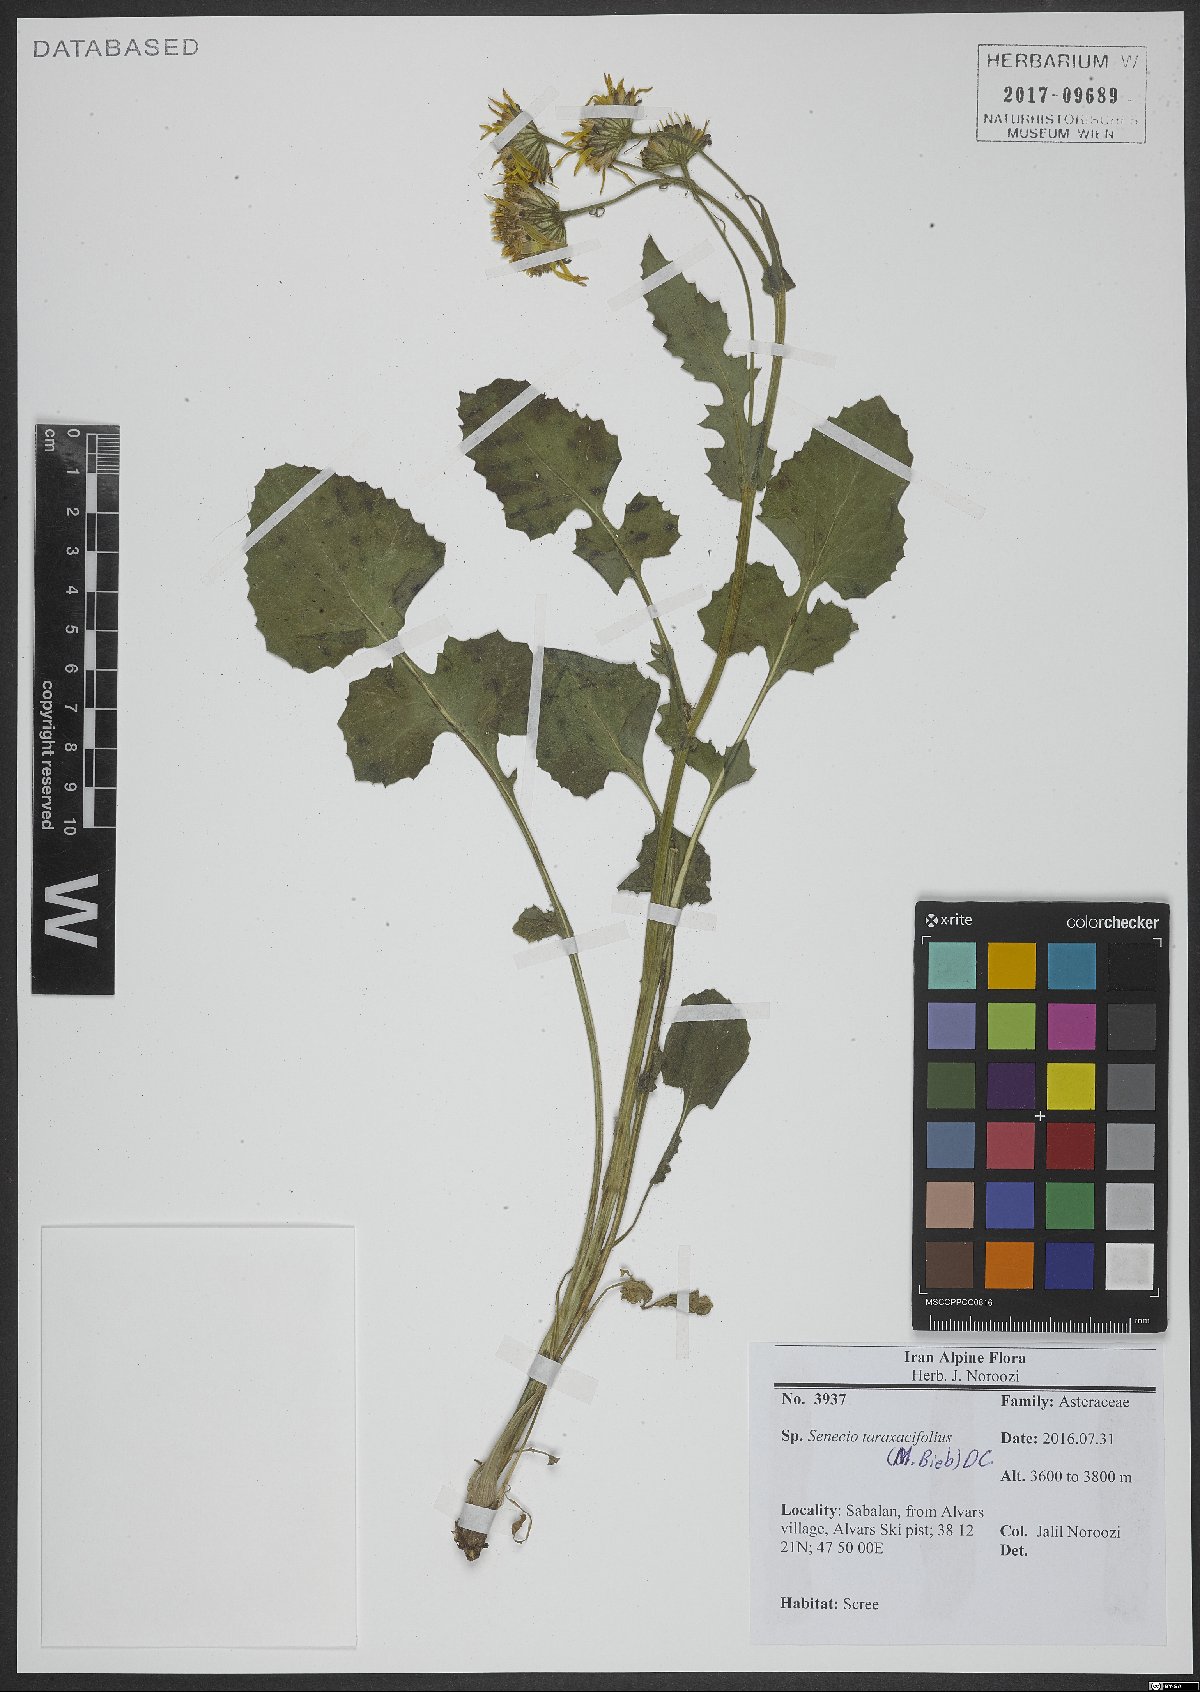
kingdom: Plantae
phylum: Tracheophyta
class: Magnoliopsida
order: Asterales
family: Asteraceae
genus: Turanecio
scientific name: Turanecio taraxacifolius
